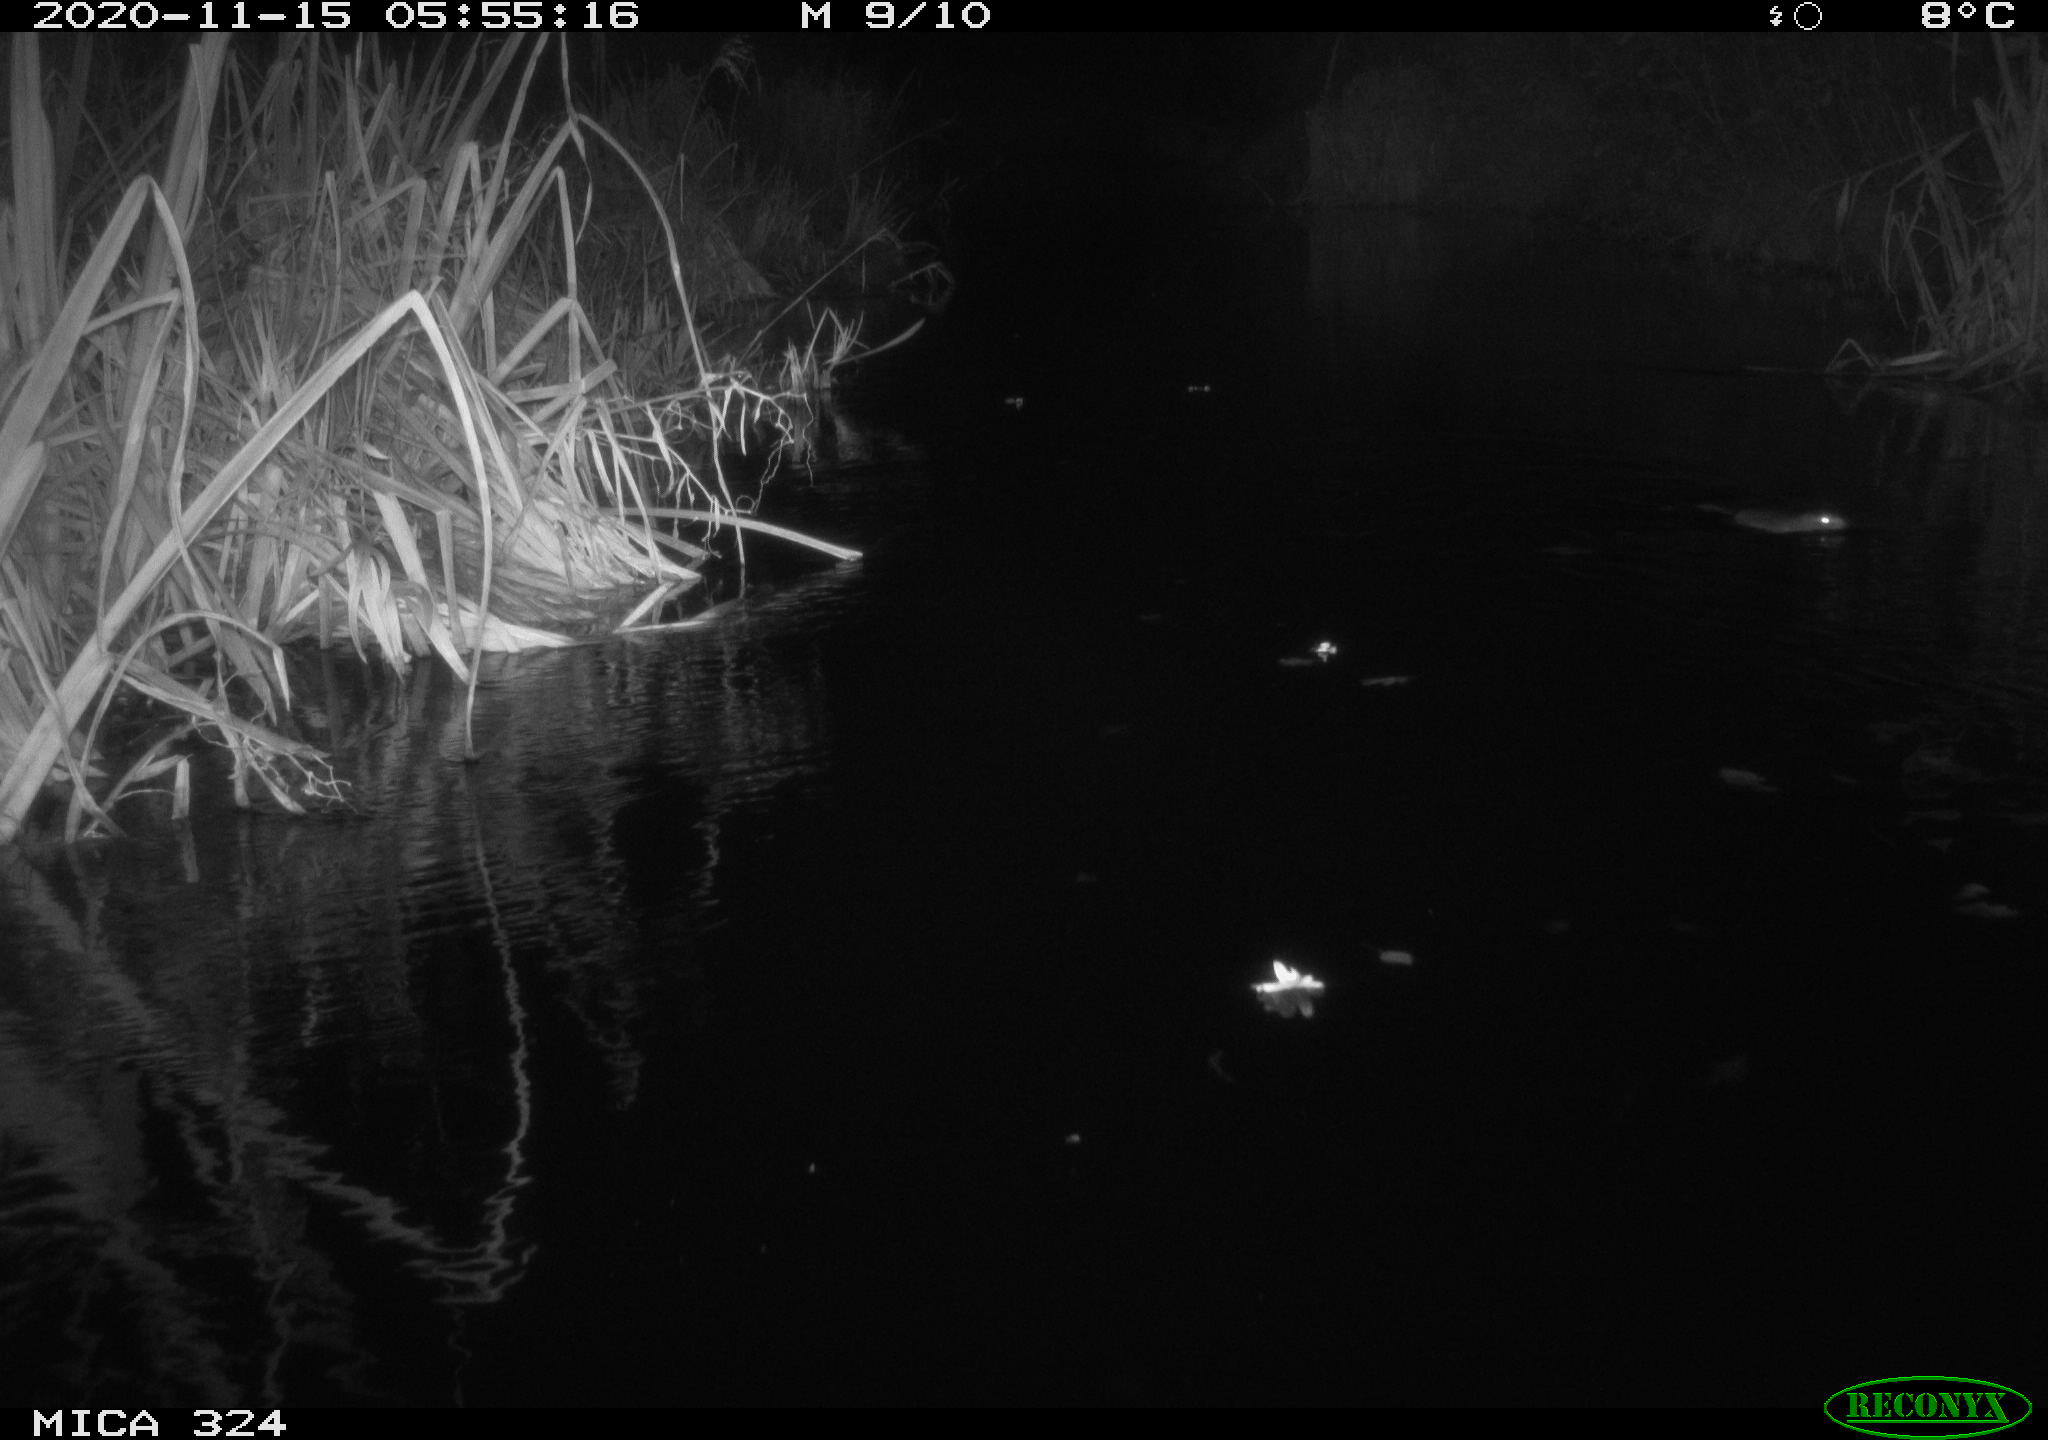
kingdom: Animalia
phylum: Chordata
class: Mammalia
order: Rodentia
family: Cricetidae
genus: Ondatra
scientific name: Ondatra zibethicus
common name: Muskrat
